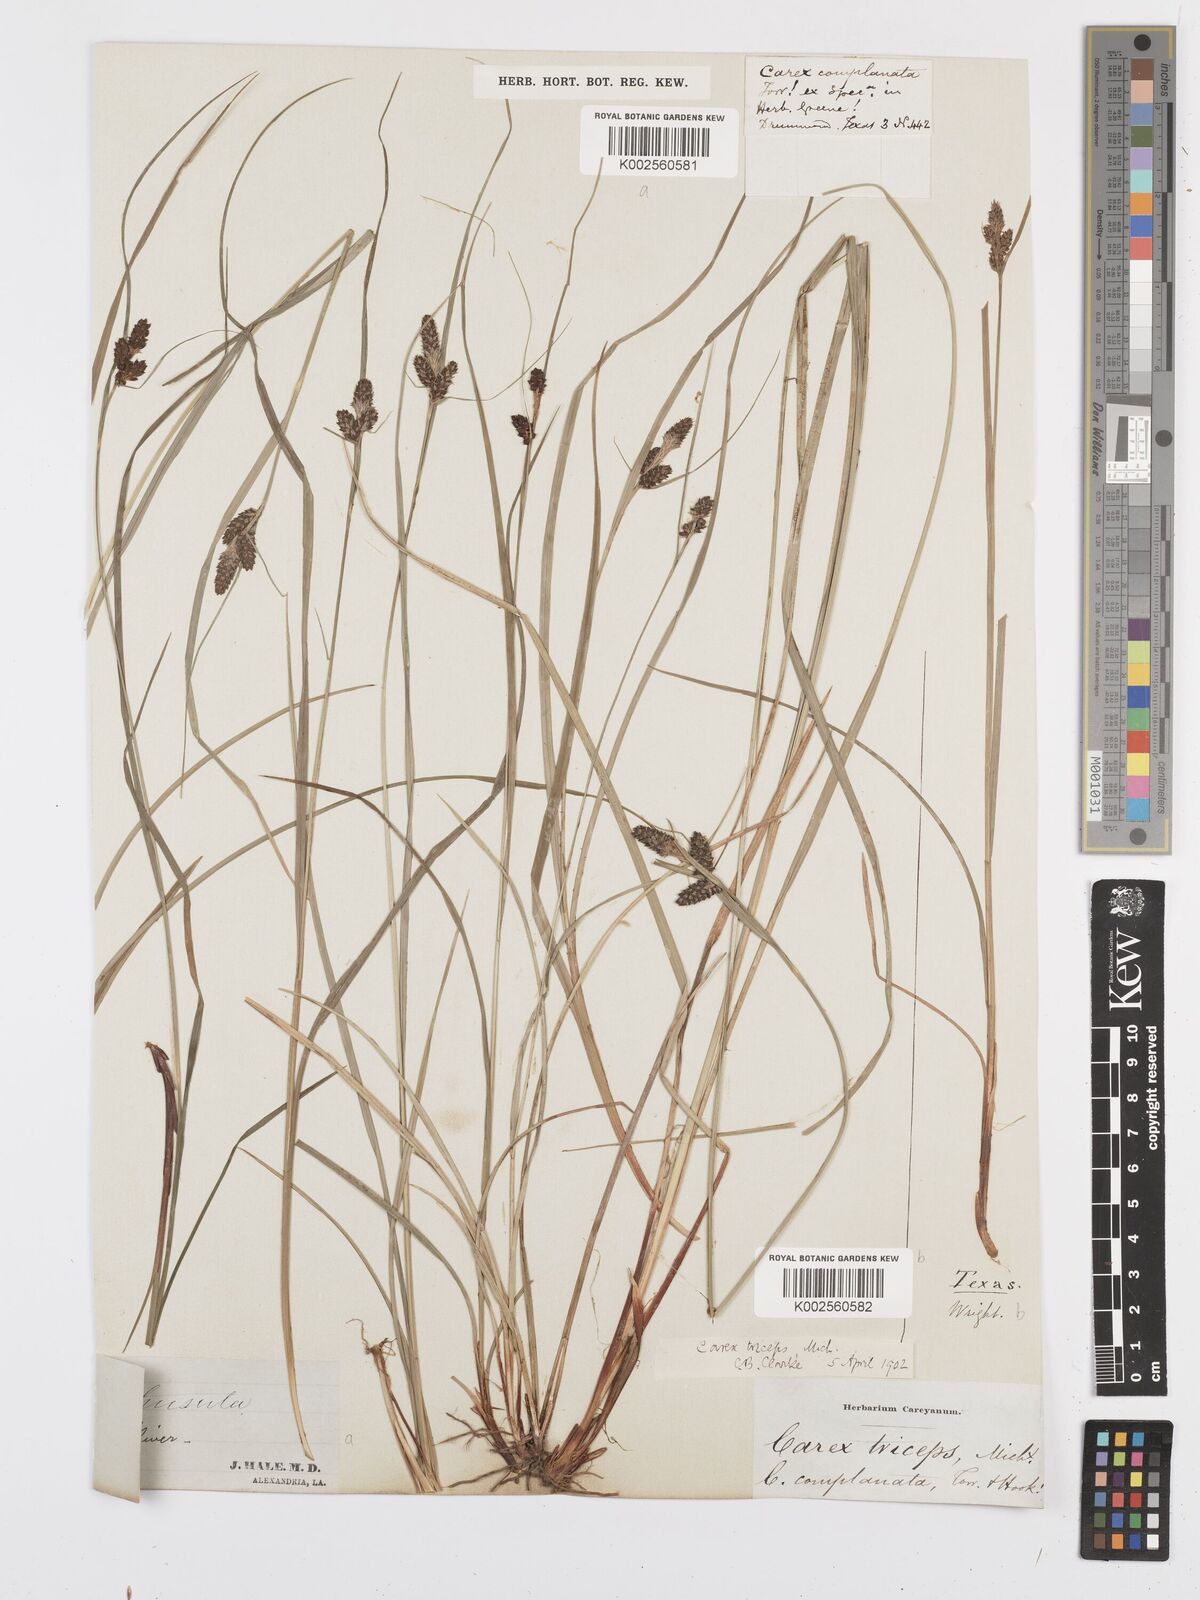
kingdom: Plantae
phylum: Tracheophyta
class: Liliopsida
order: Poales
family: Cyperaceae
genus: Carex
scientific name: Carex complanata
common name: Hirsute sedge
